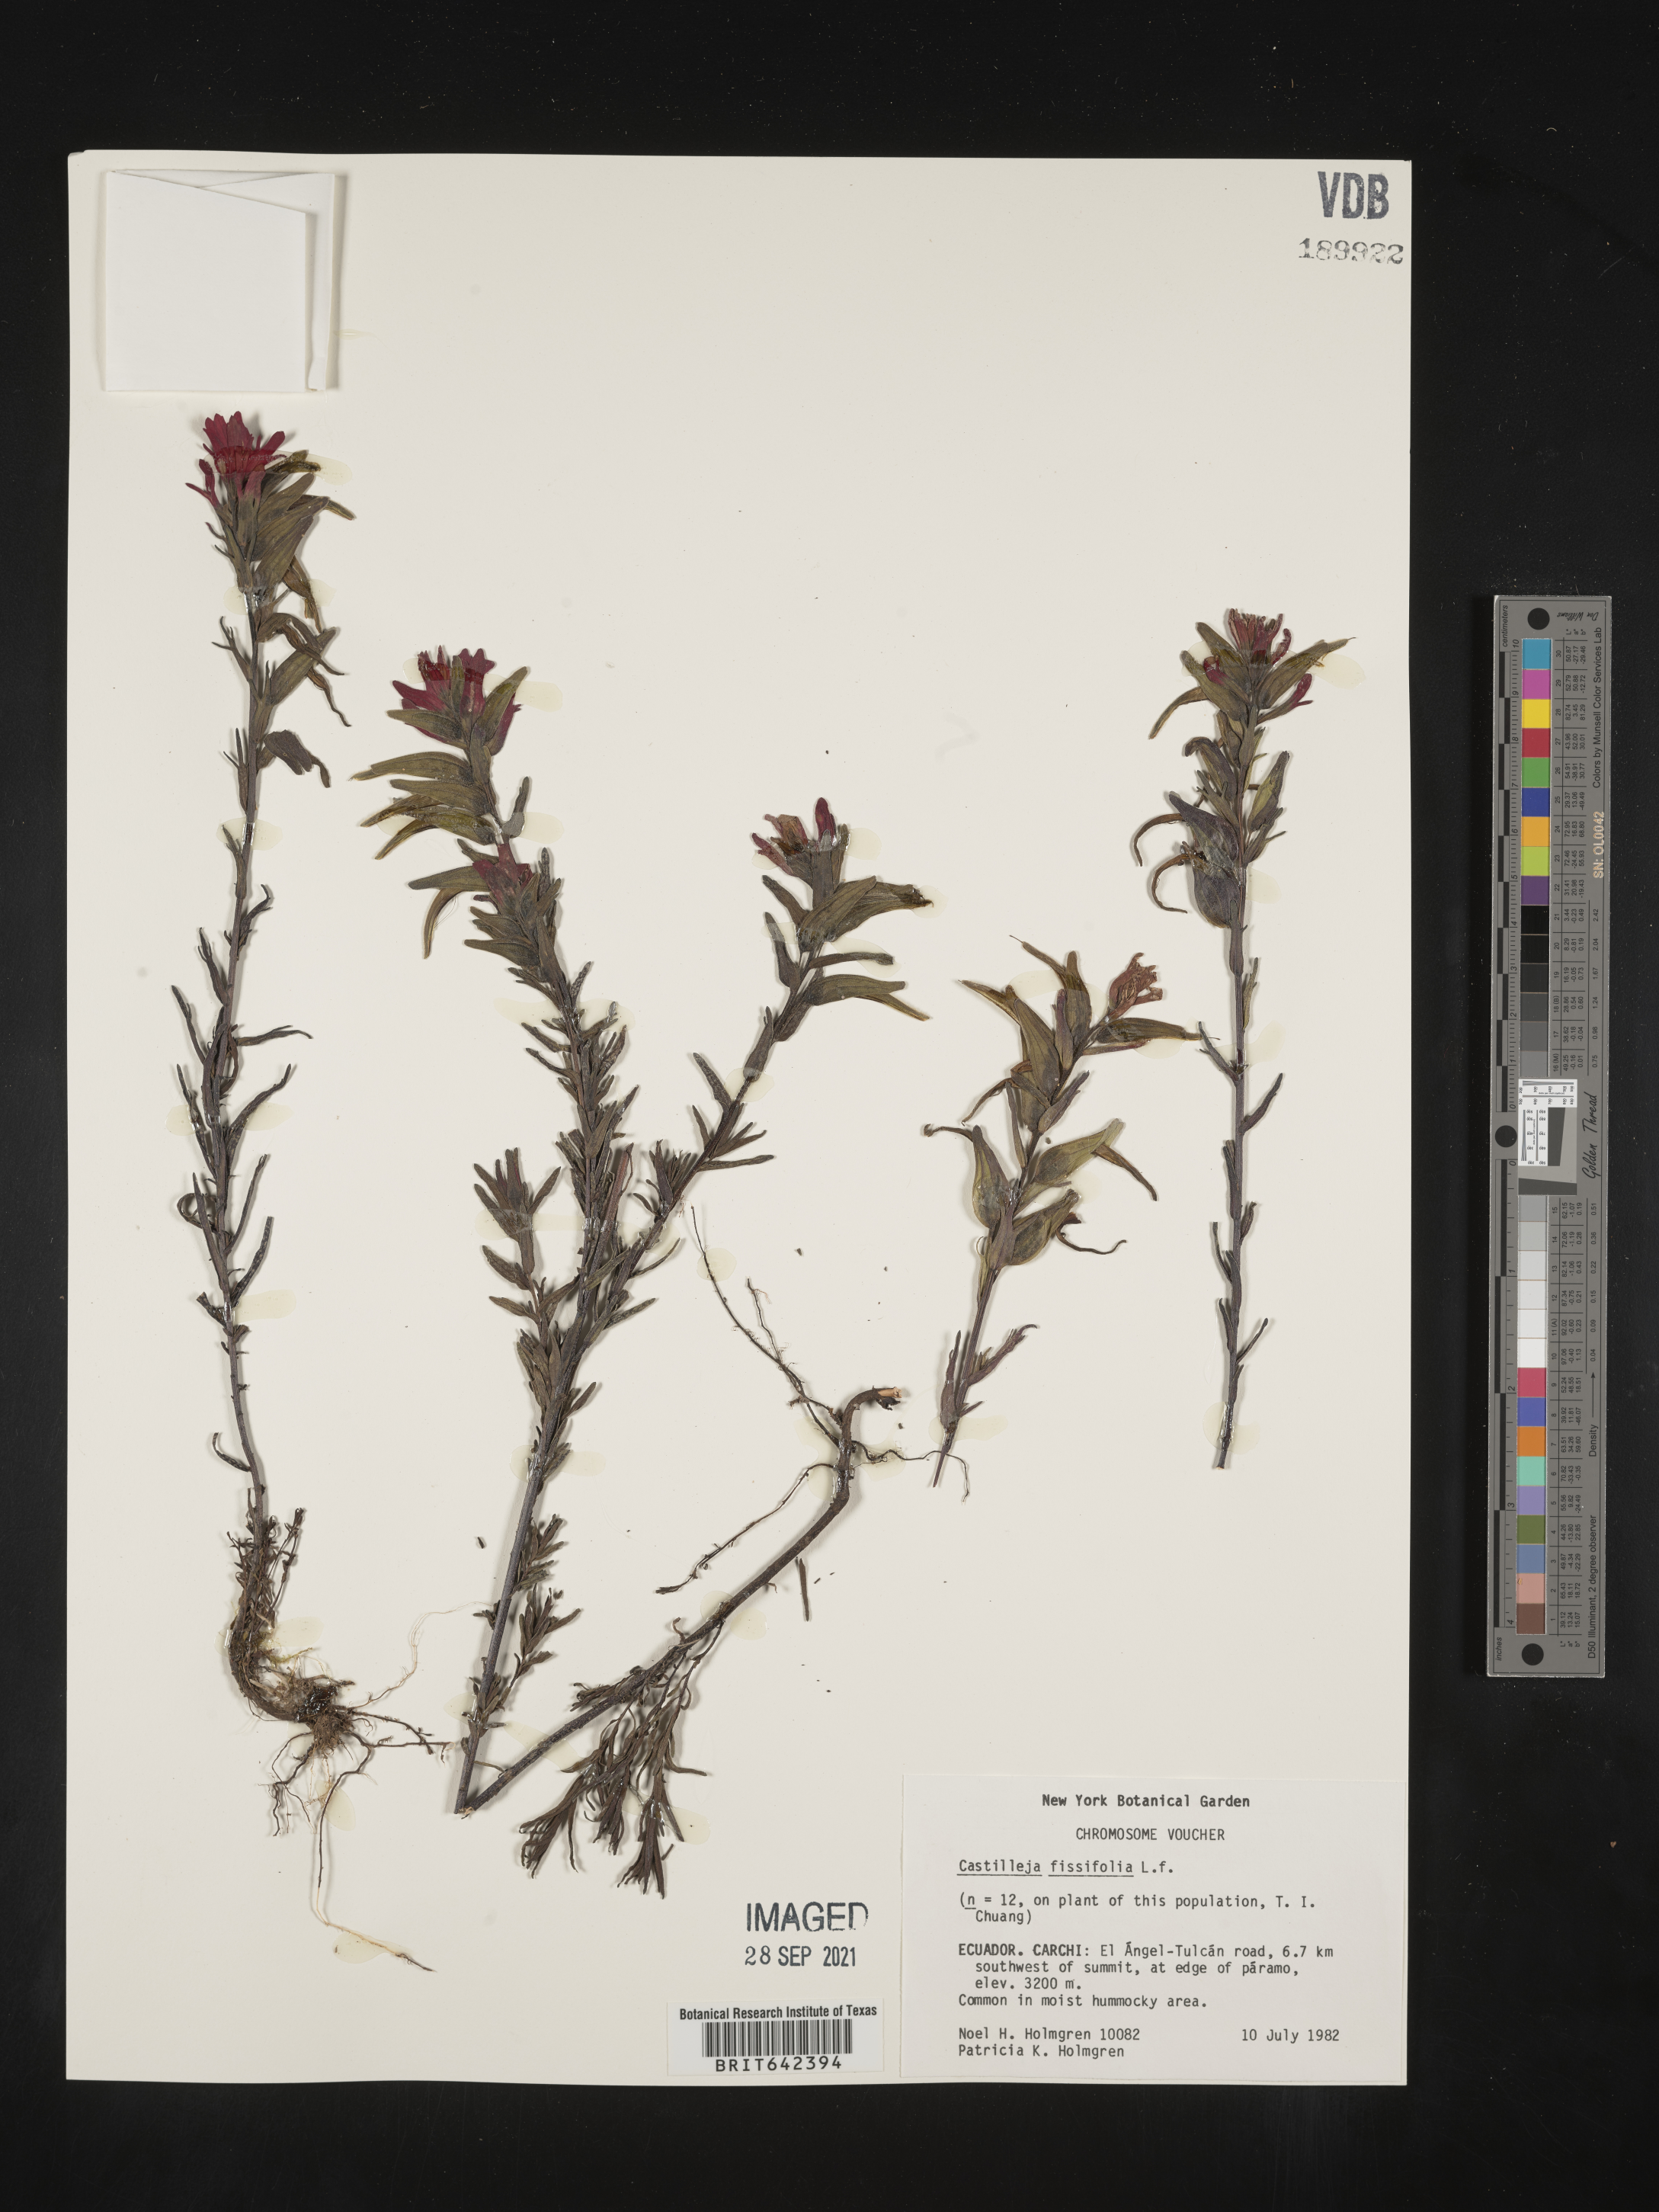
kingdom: Plantae
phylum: Tracheophyta
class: Magnoliopsida
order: Lamiales
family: Orobanchaceae
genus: Castilleja
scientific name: Castilleja
